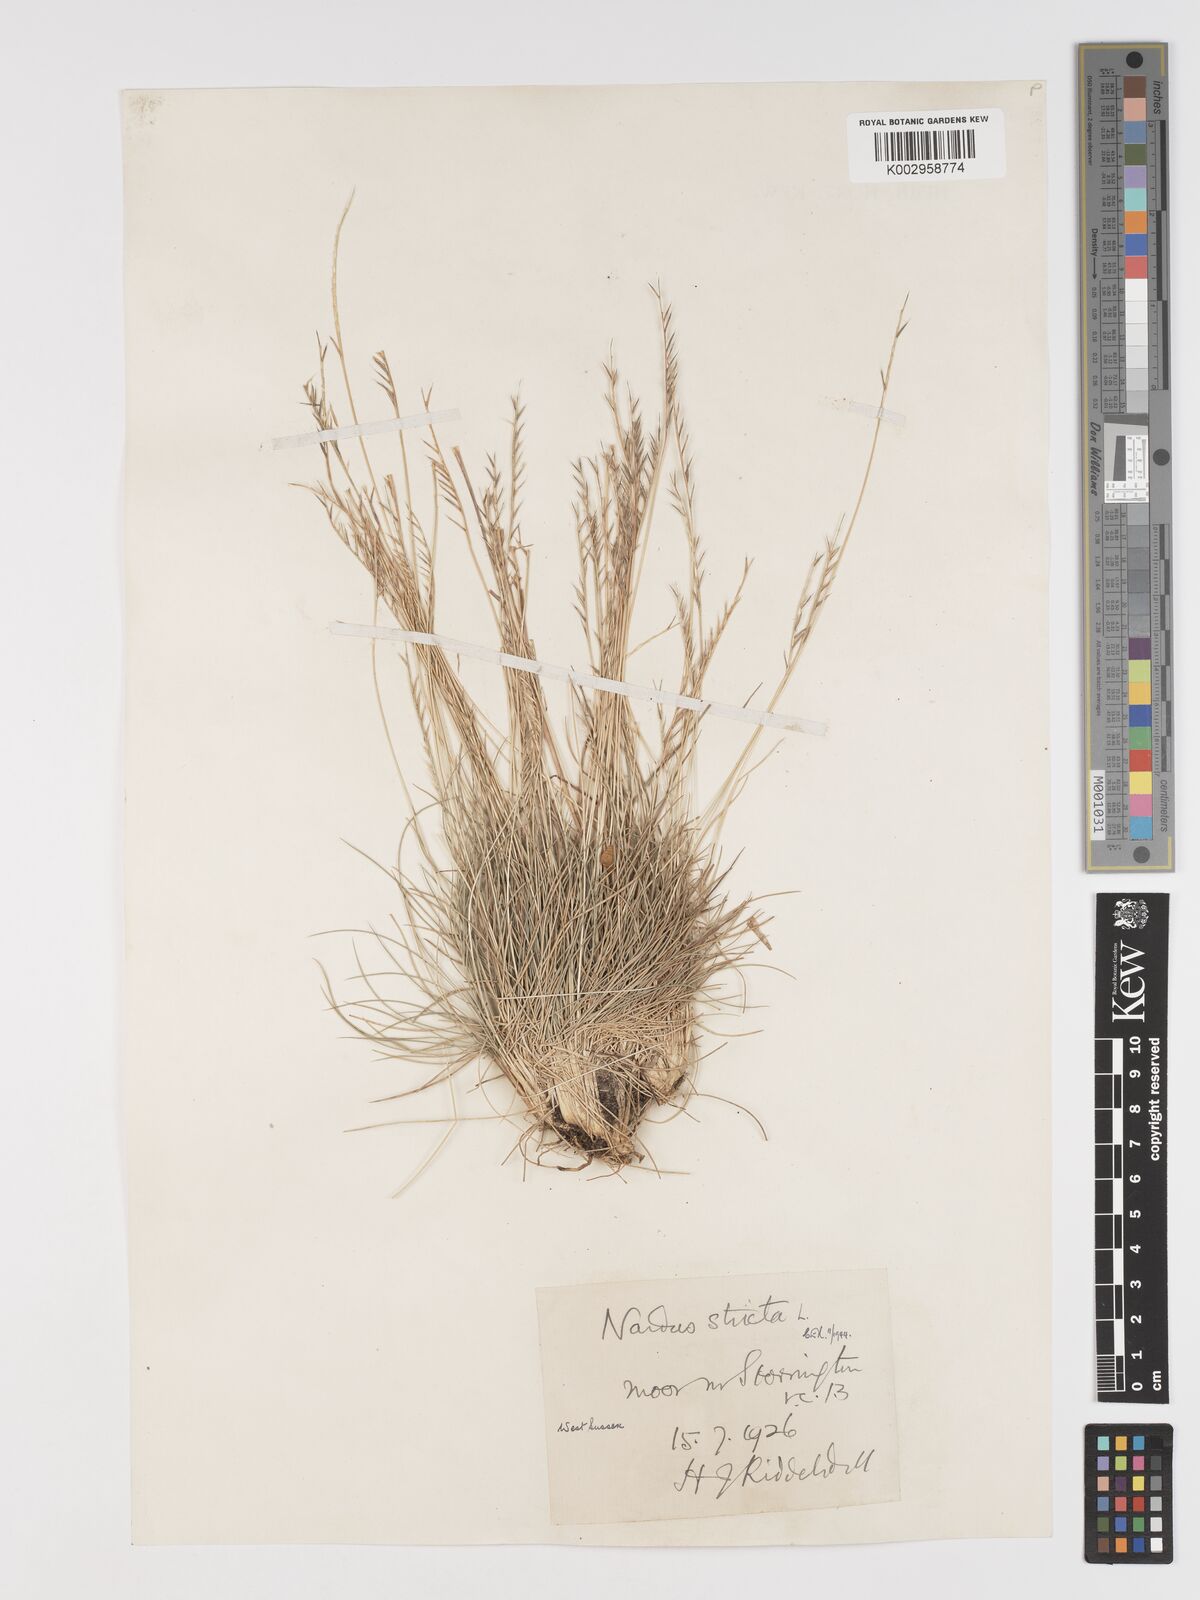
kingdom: Plantae
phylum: Tracheophyta
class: Liliopsida
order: Poales
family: Poaceae
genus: Nardus
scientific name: Nardus stricta
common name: Mat-grass
